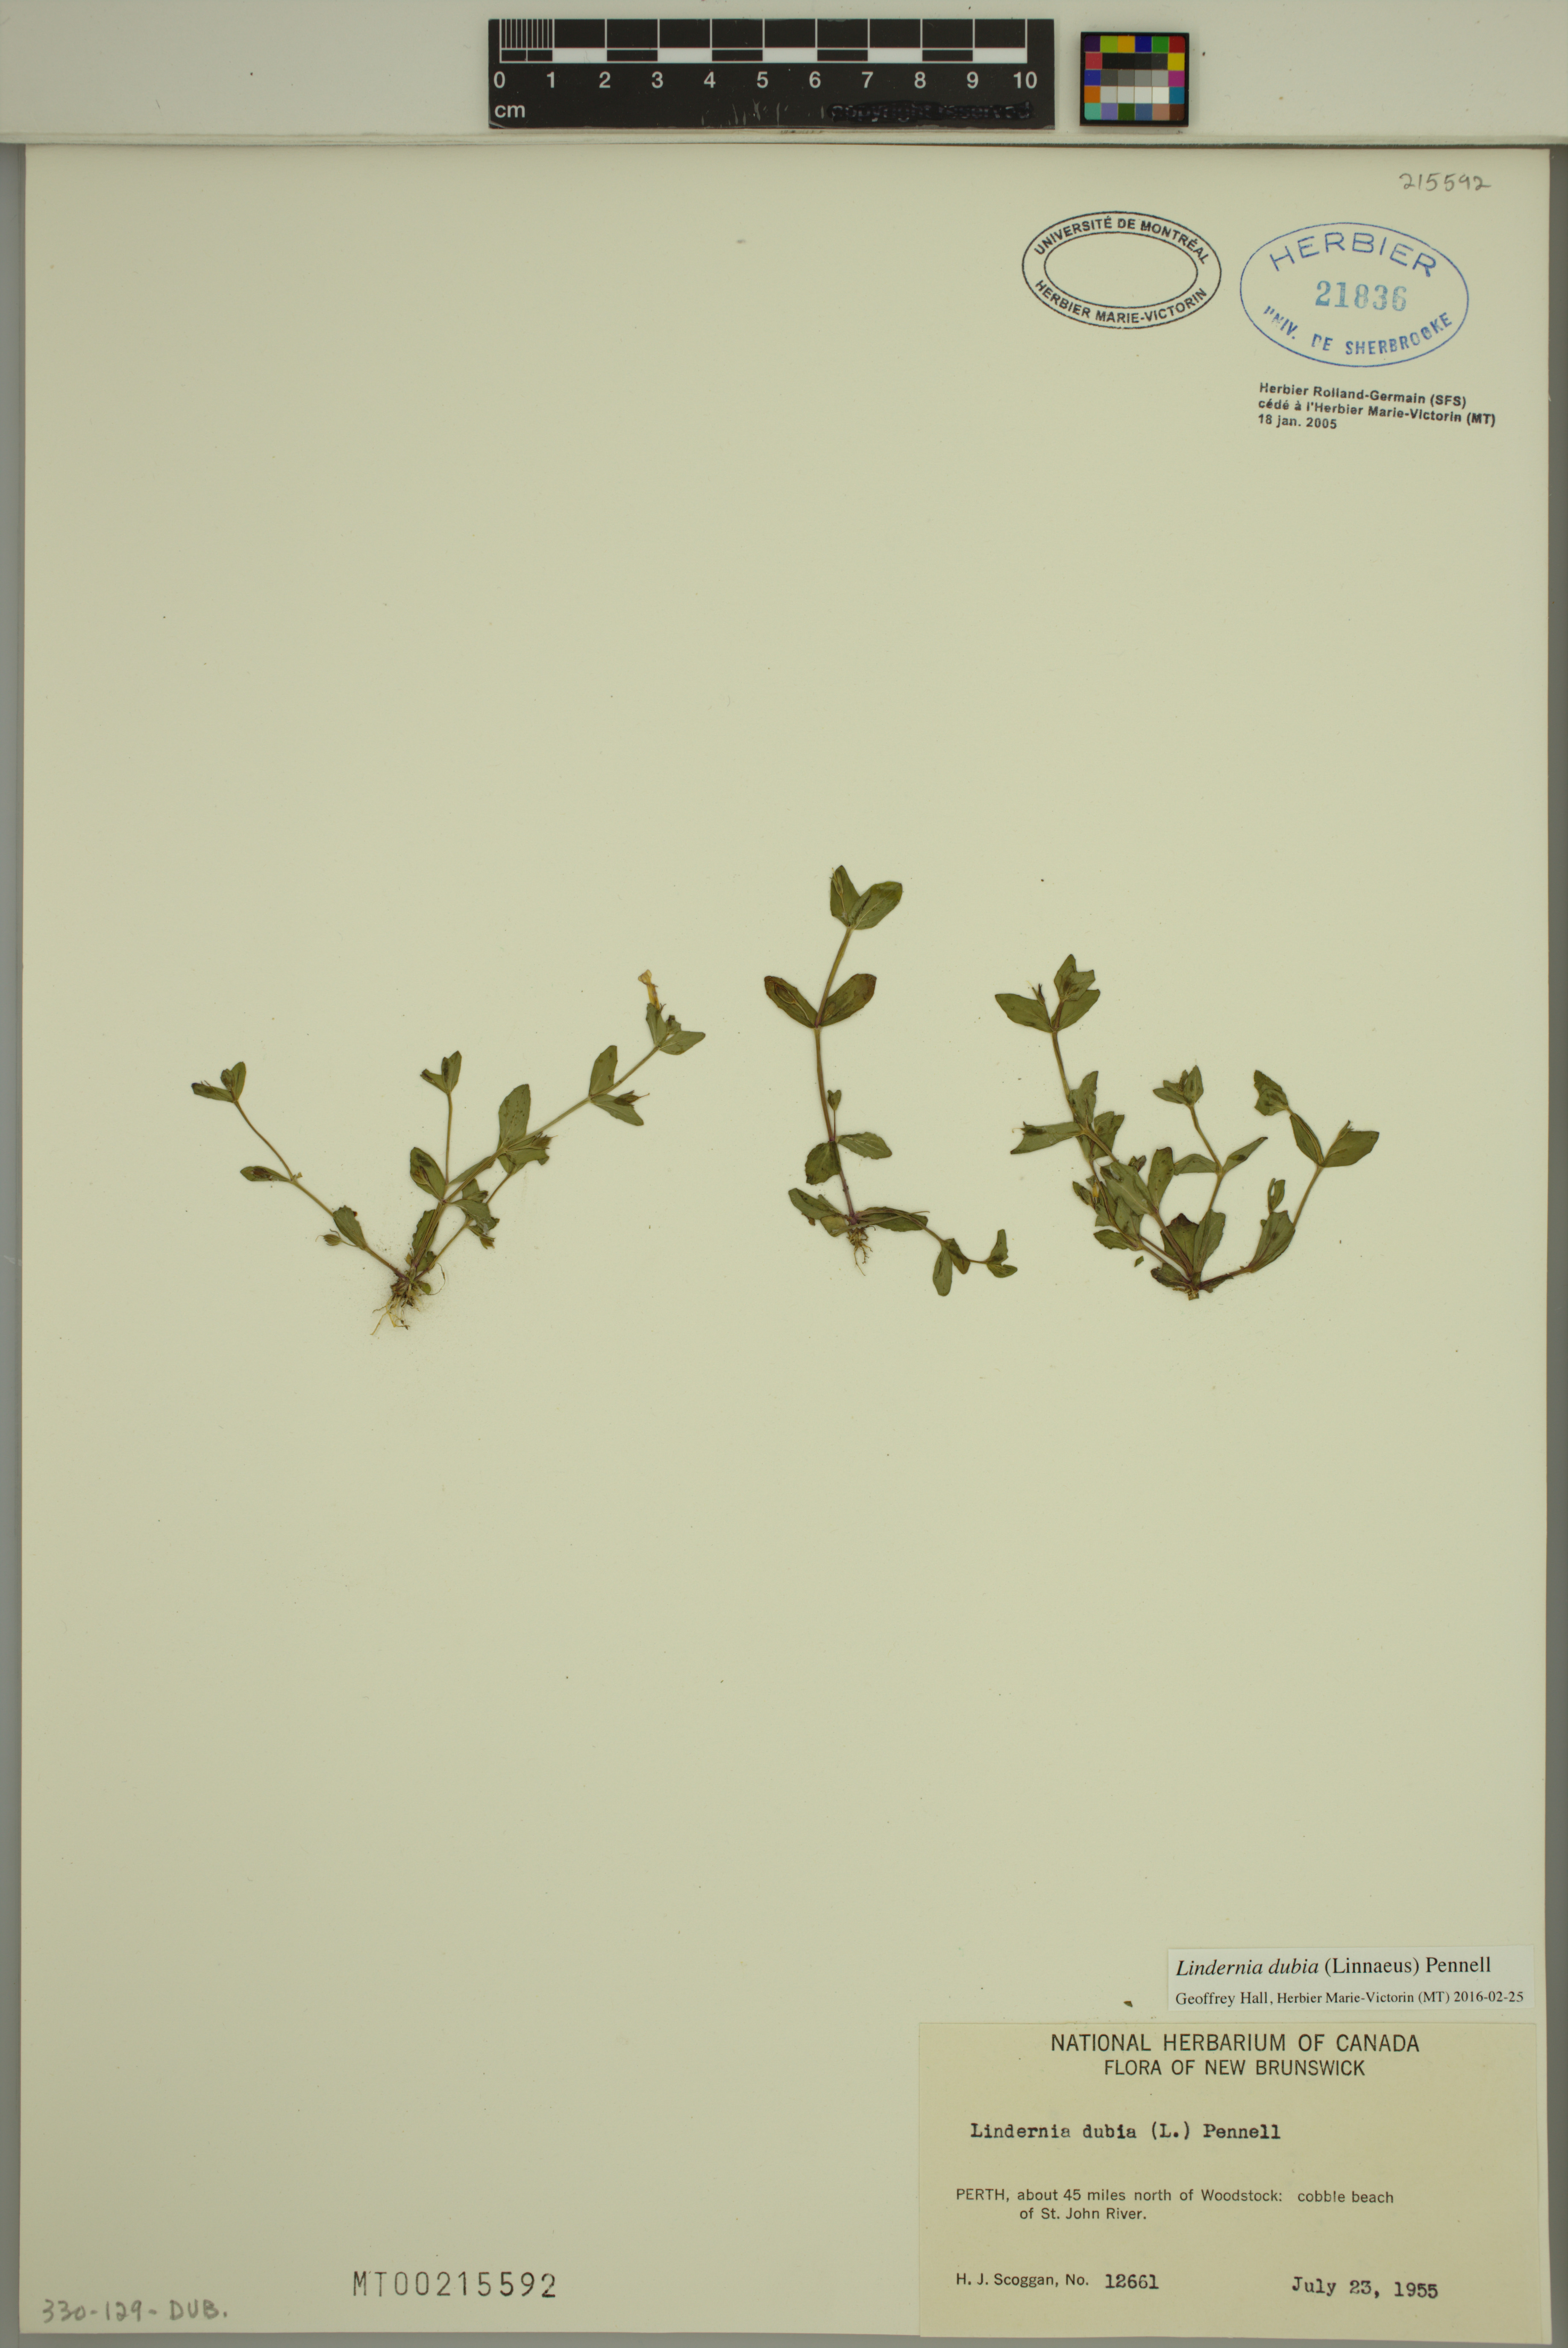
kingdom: Plantae
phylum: Tracheophyta
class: Magnoliopsida
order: Lamiales
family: Linderniaceae
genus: Lindernia
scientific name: Lindernia dubia
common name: Annual false pimpernel
